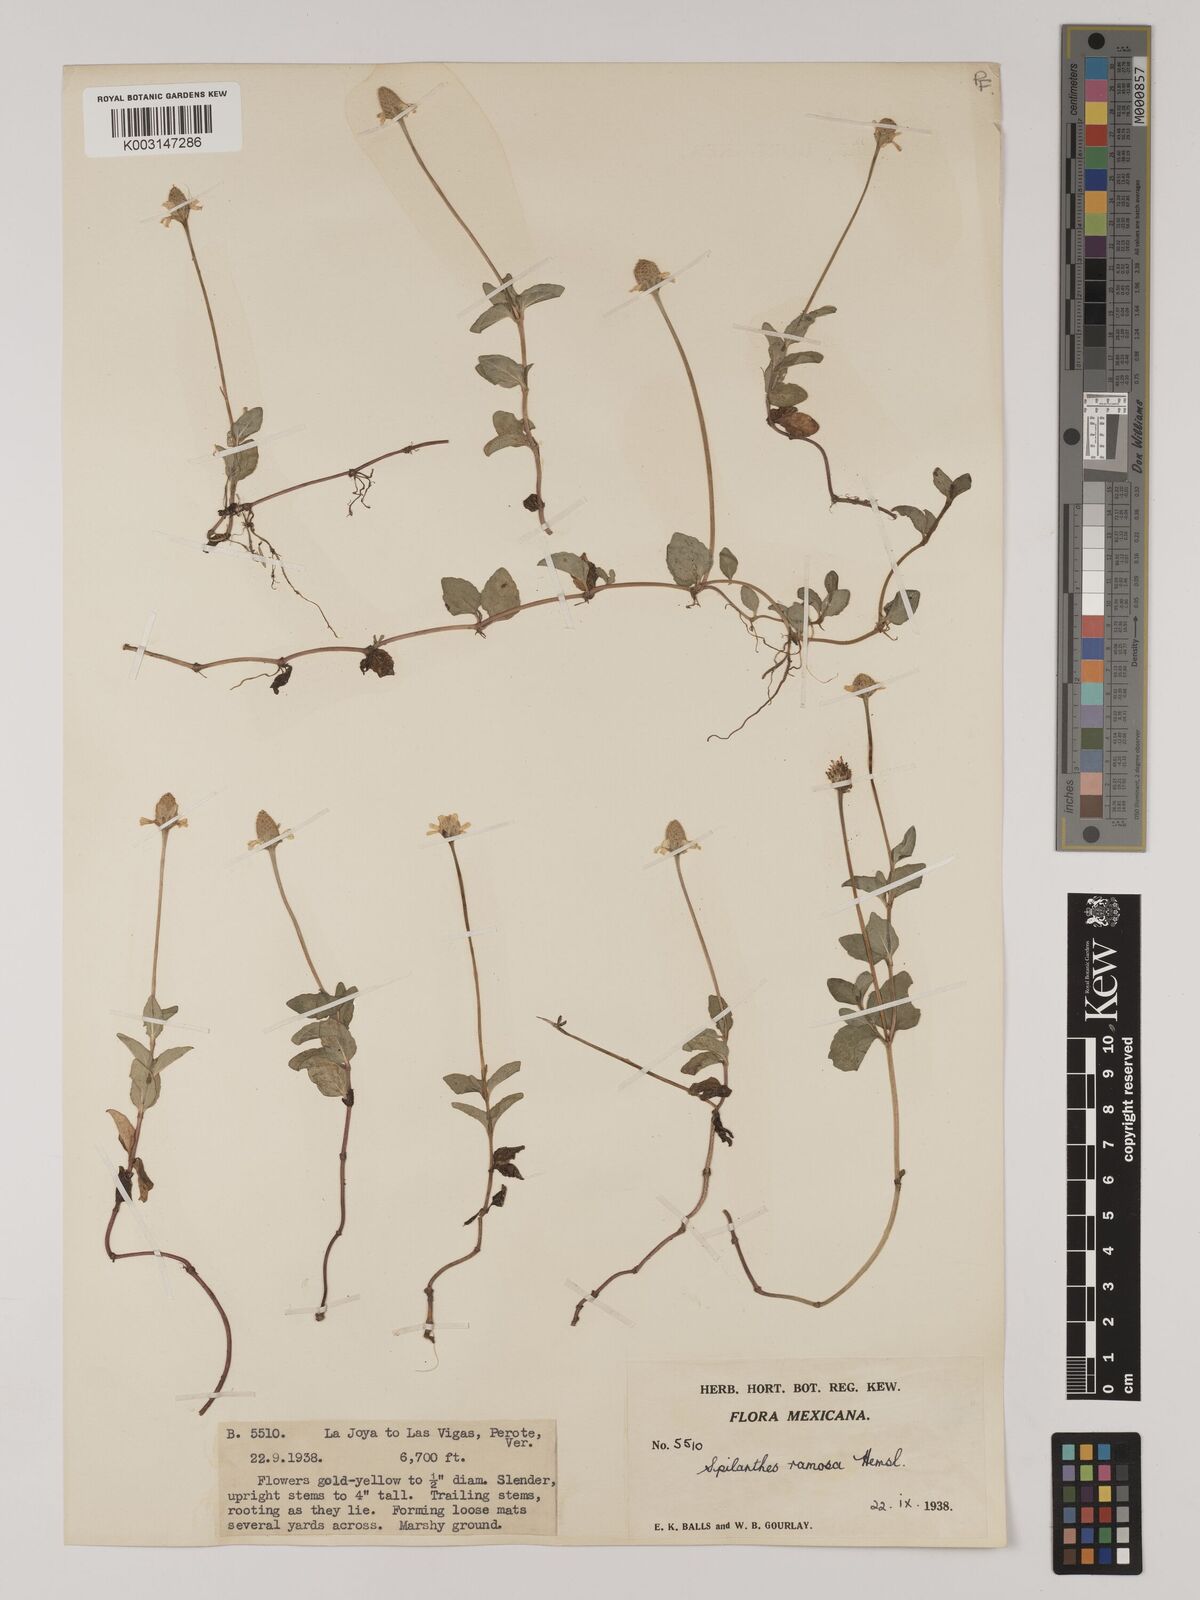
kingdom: Plantae
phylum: Tracheophyta
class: Magnoliopsida
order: Asterales
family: Asteraceae
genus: Acmella
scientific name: Acmella ramosa
